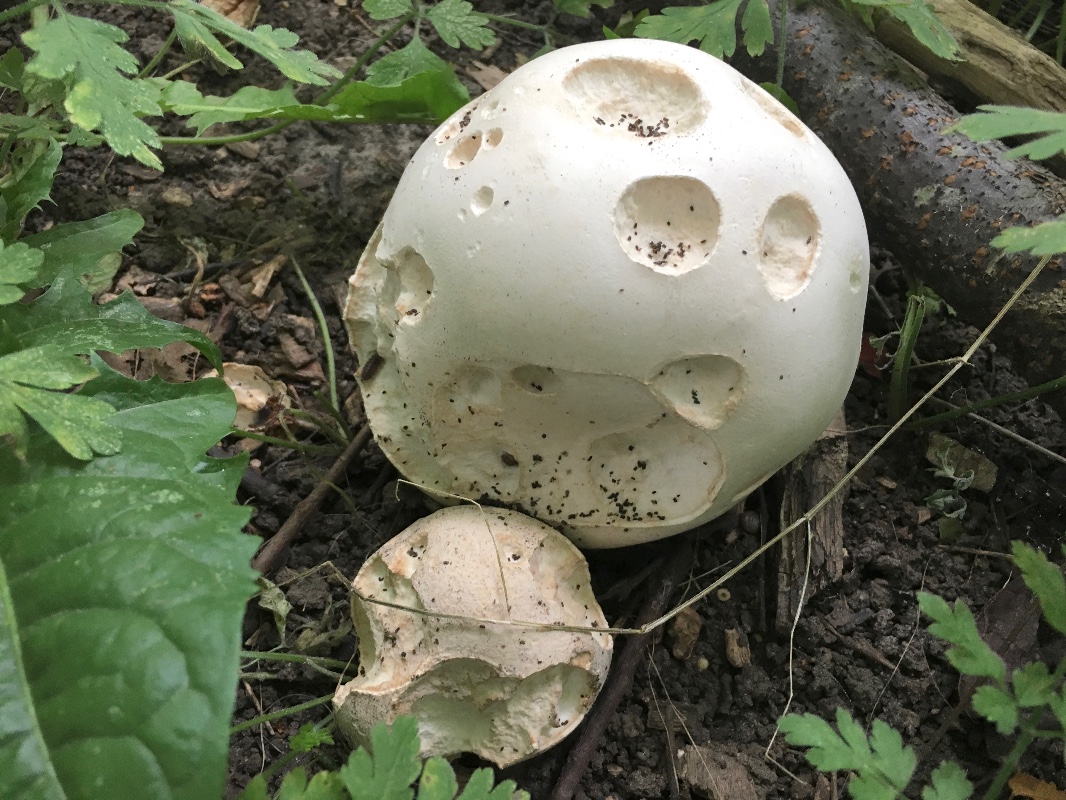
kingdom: Fungi
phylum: Basidiomycota
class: Agaricomycetes
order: Agaricales
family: Lycoperdaceae
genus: Calvatia
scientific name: Calvatia gigantea
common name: kæmpestøvbold
